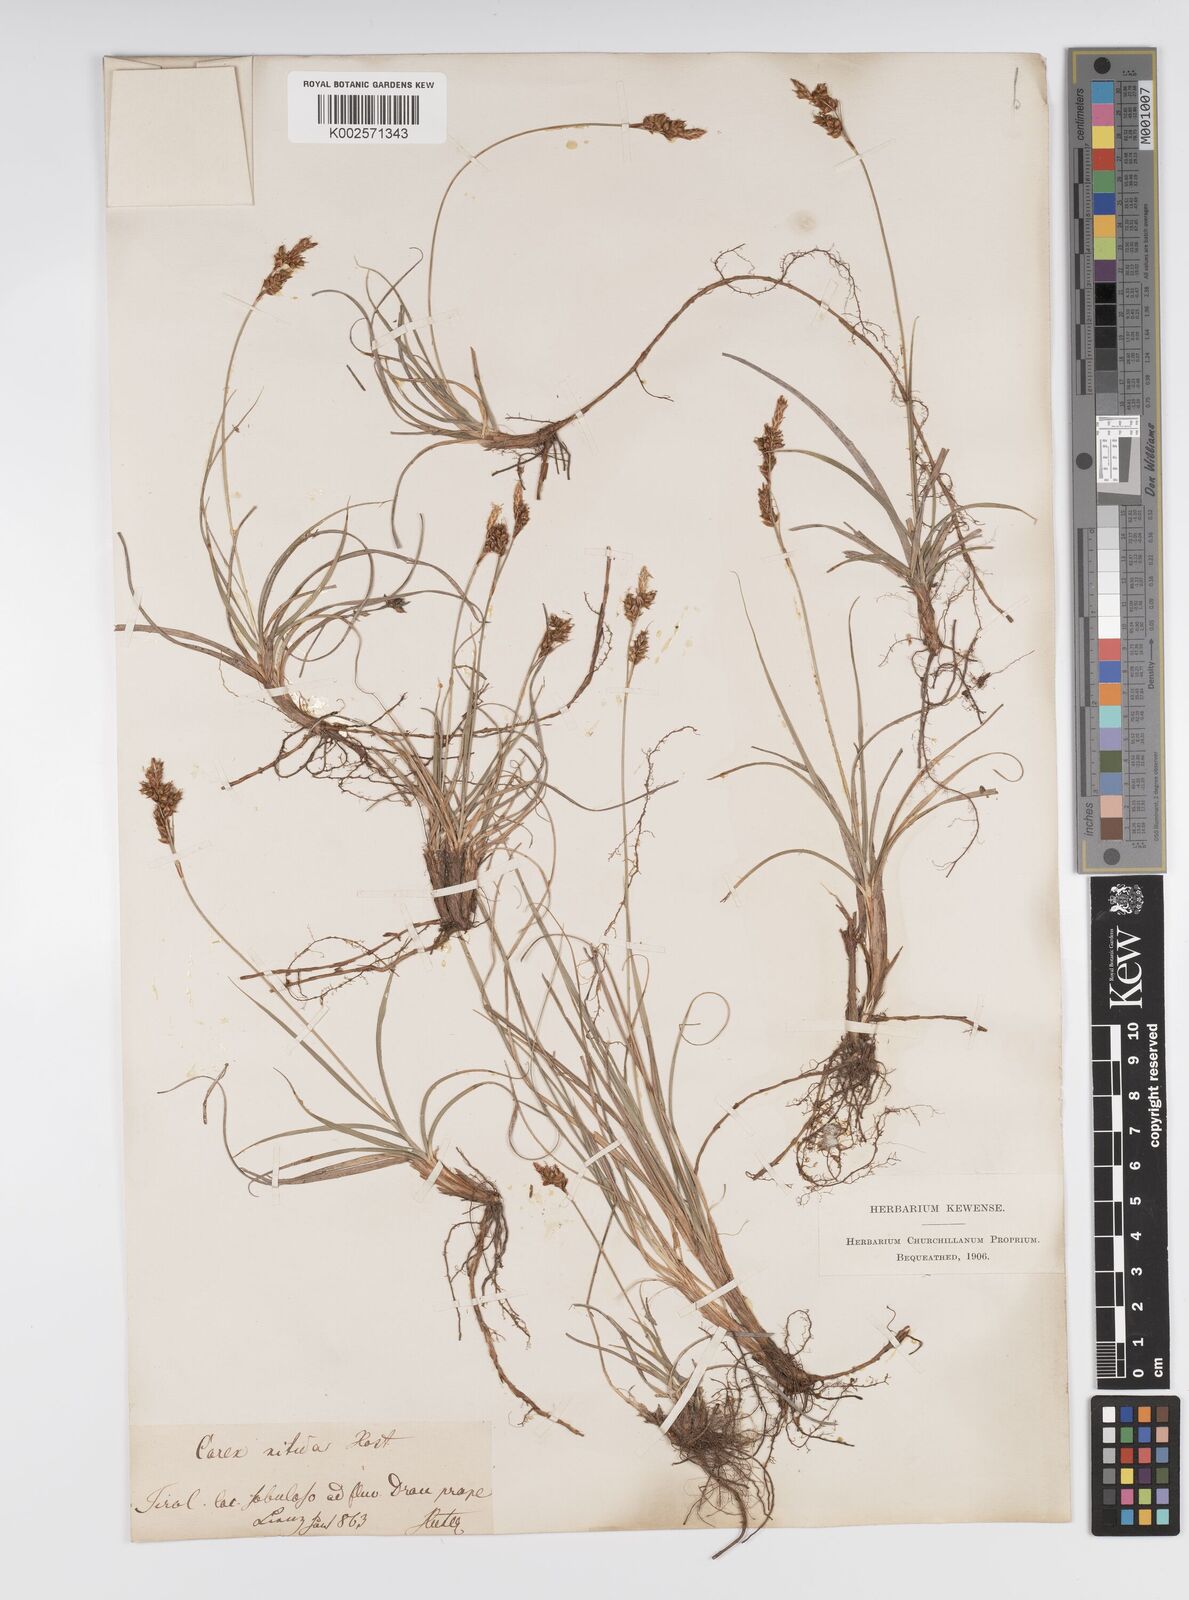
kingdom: Plantae
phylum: Tracheophyta
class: Liliopsida
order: Poales
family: Cyperaceae
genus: Carex
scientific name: Carex liparocarpos
